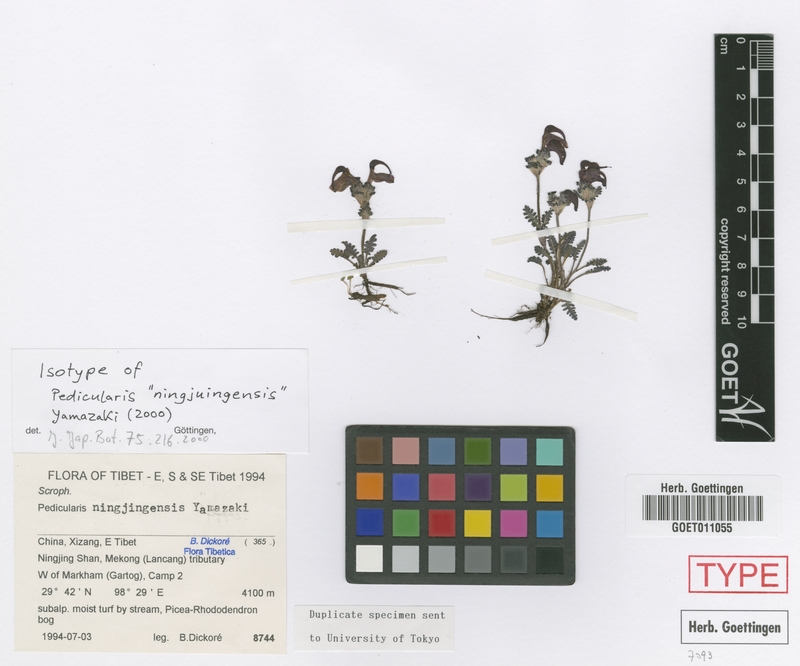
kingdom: Plantae
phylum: Tracheophyta
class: Magnoliopsida
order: Lamiales
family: Orobanchaceae
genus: Pedicularis
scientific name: Pedicularis ningjungensis
